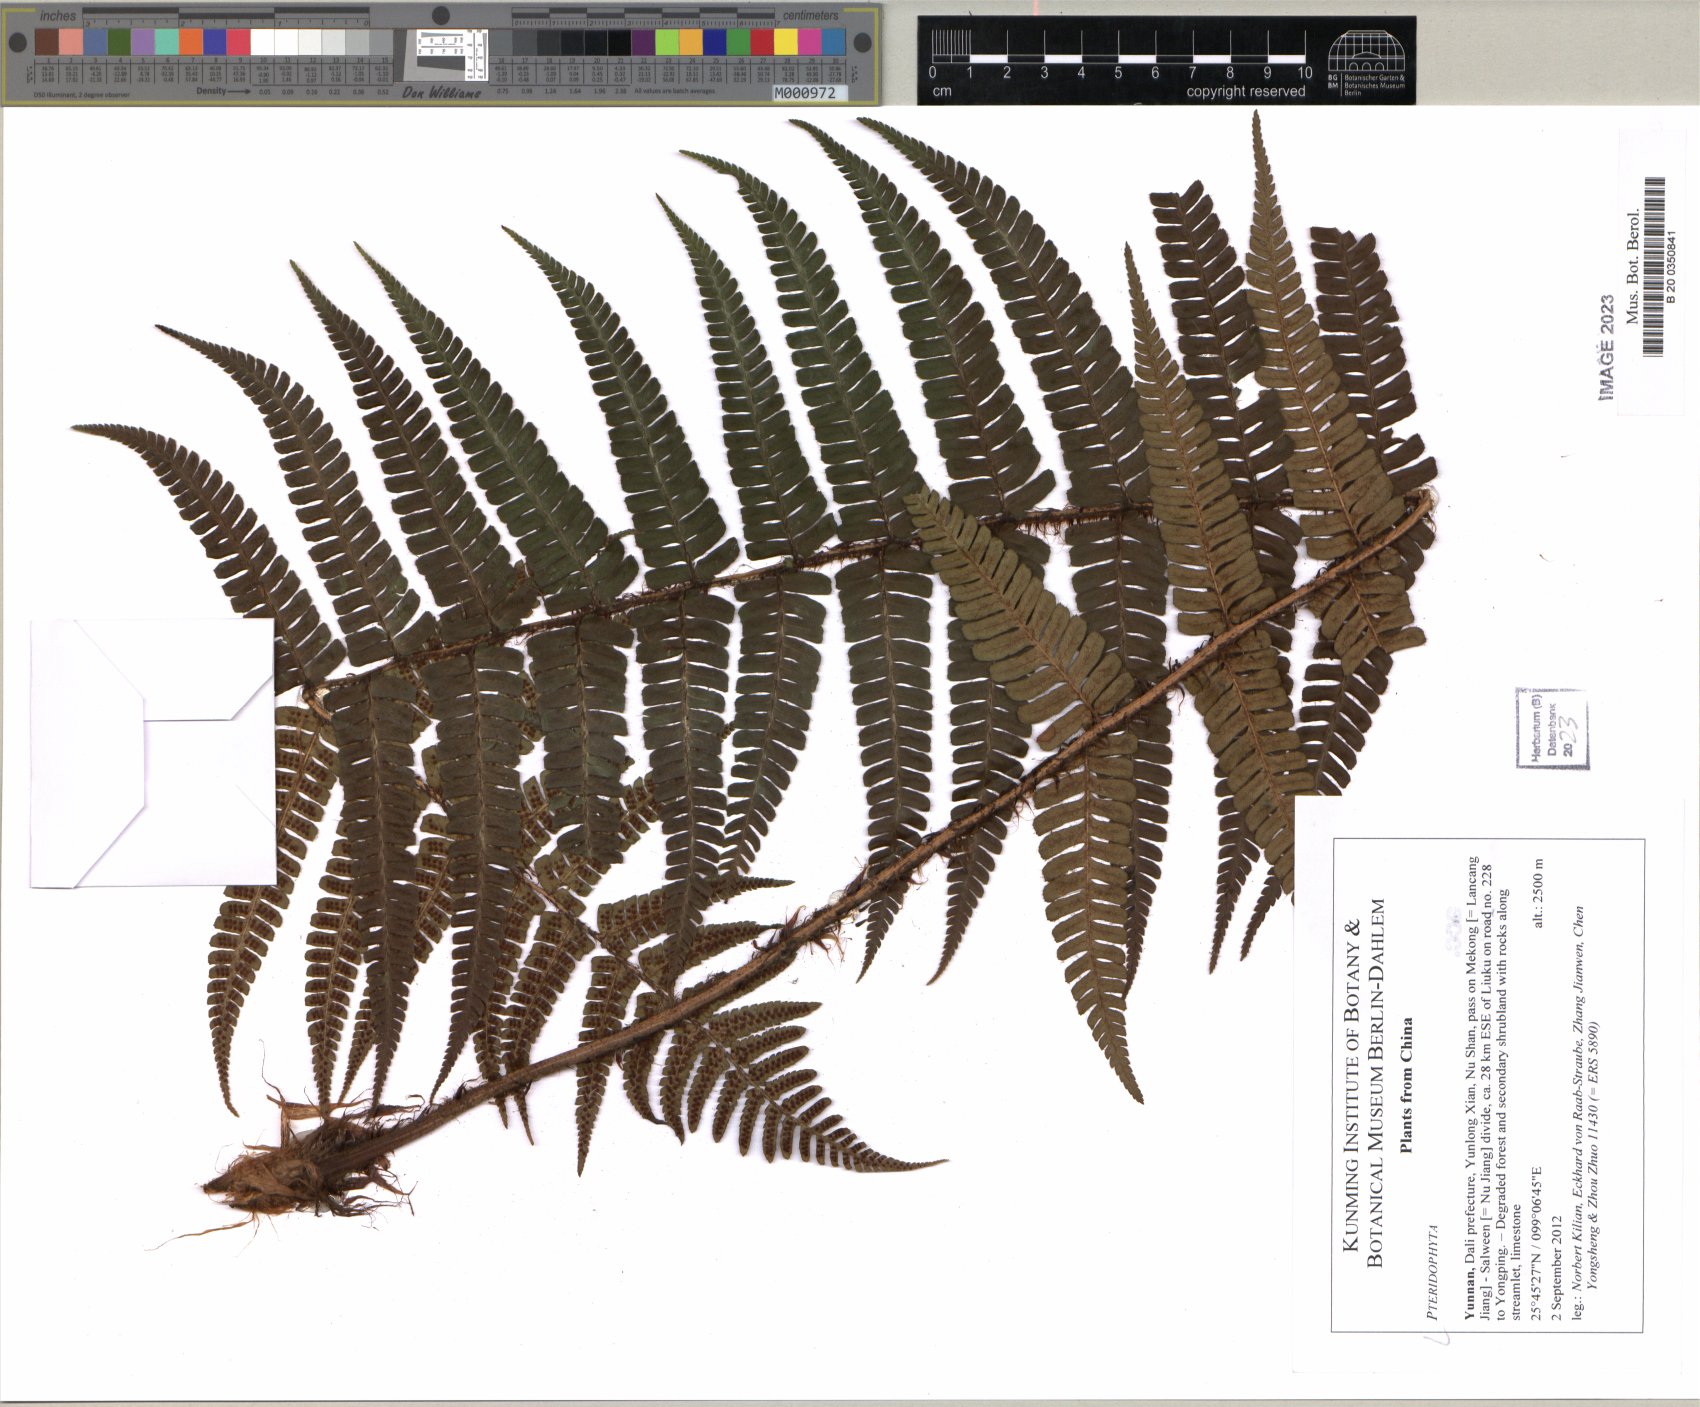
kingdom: Plantae
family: Pteridophyta
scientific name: Pteridophyta
